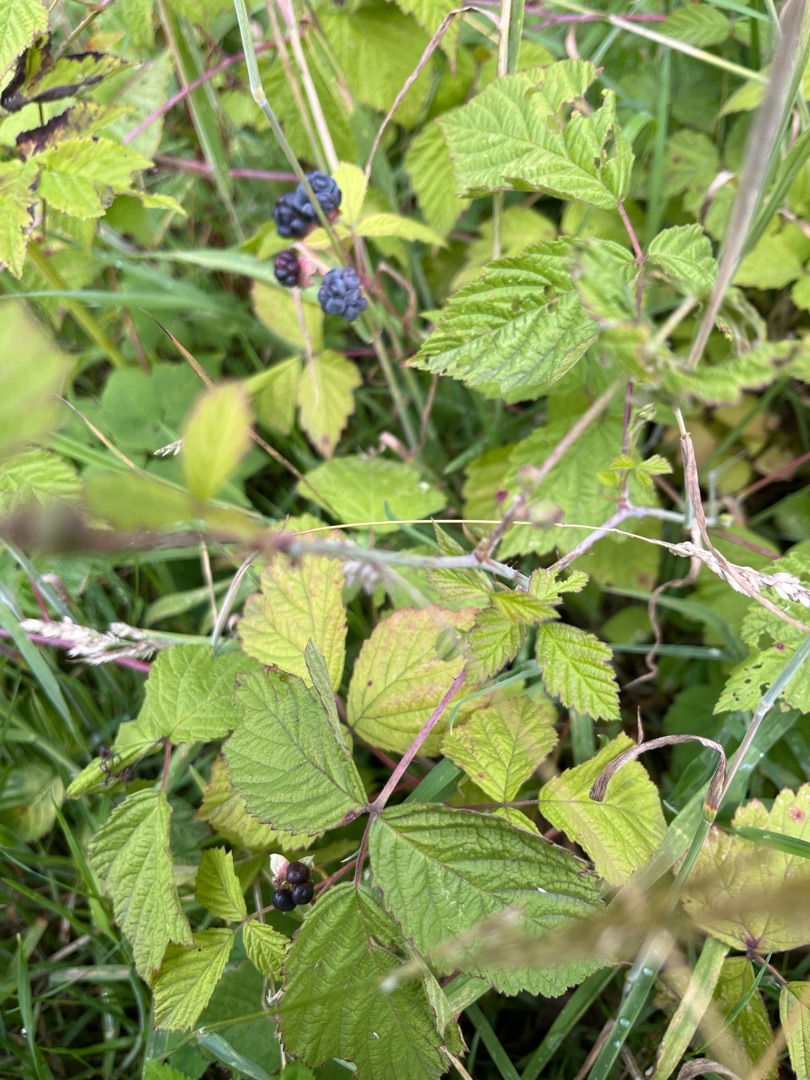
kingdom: Plantae
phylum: Tracheophyta
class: Magnoliopsida
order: Rosales
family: Rosaceae
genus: Rubus
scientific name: Rubus caesius
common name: Korbær
